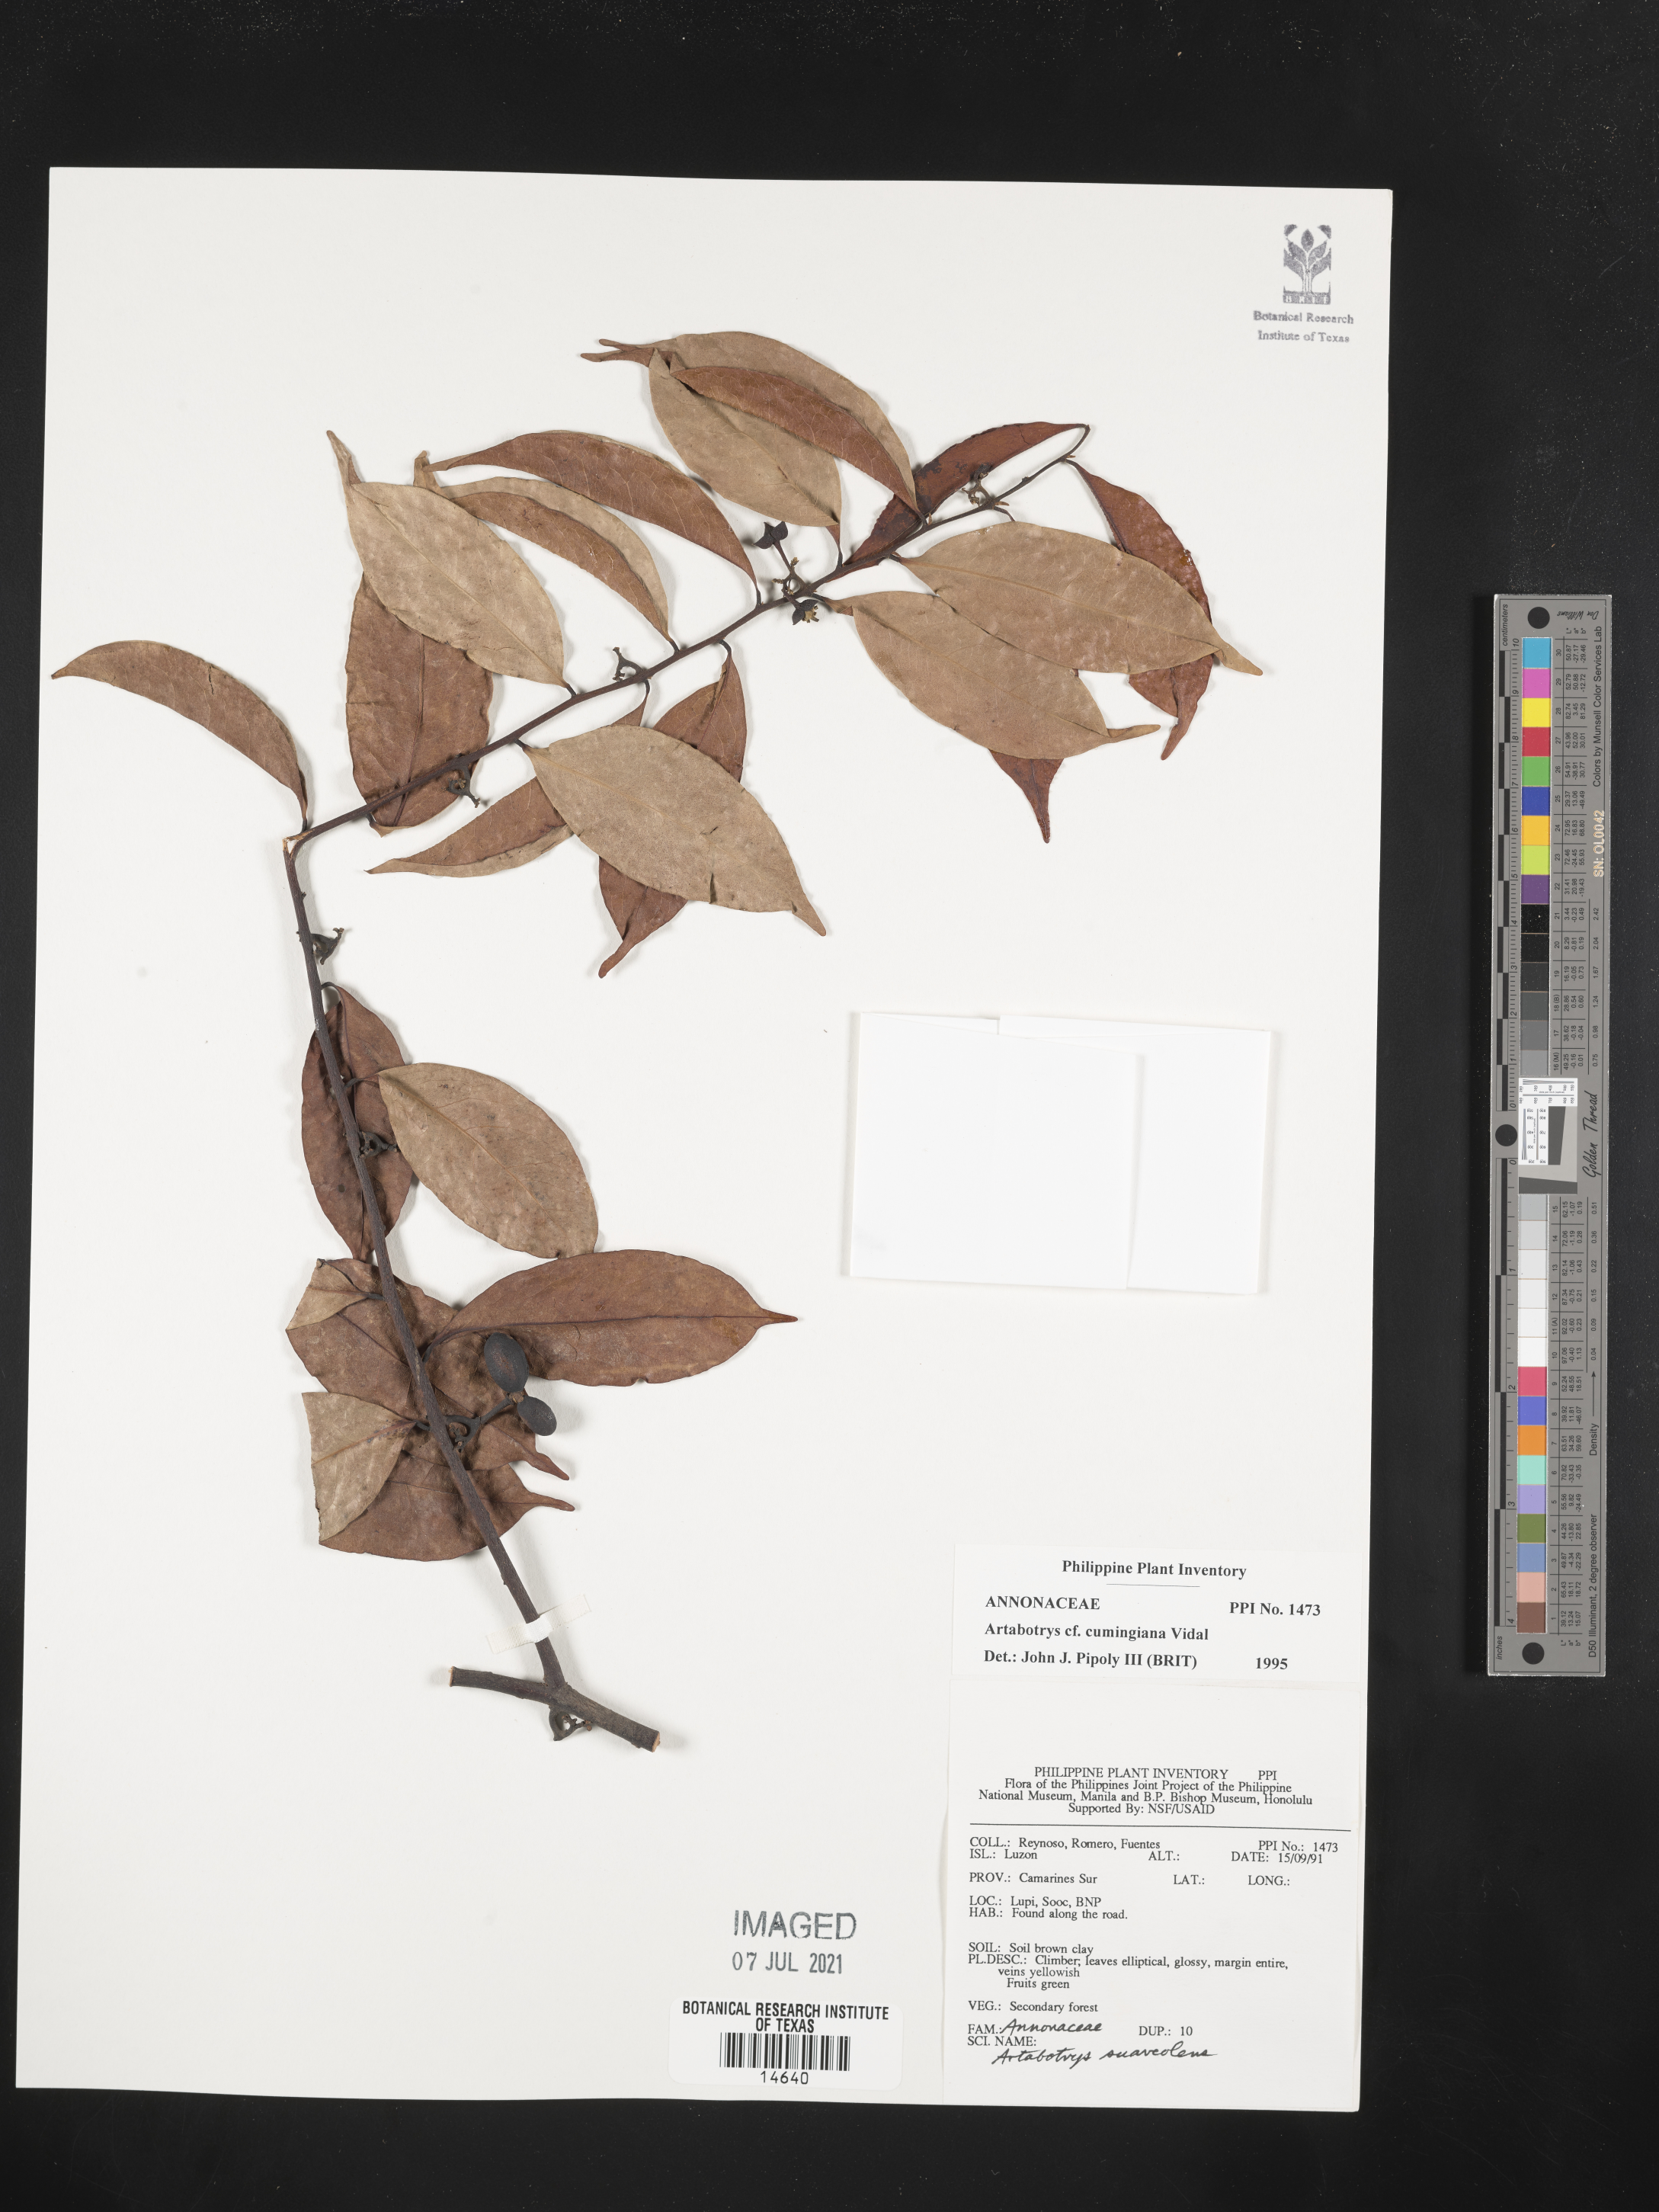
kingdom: Plantae
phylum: Tracheophyta
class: Magnoliopsida
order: Magnoliales
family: Annonaceae
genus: Artabotrys
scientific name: Artabotrys cumingianus
